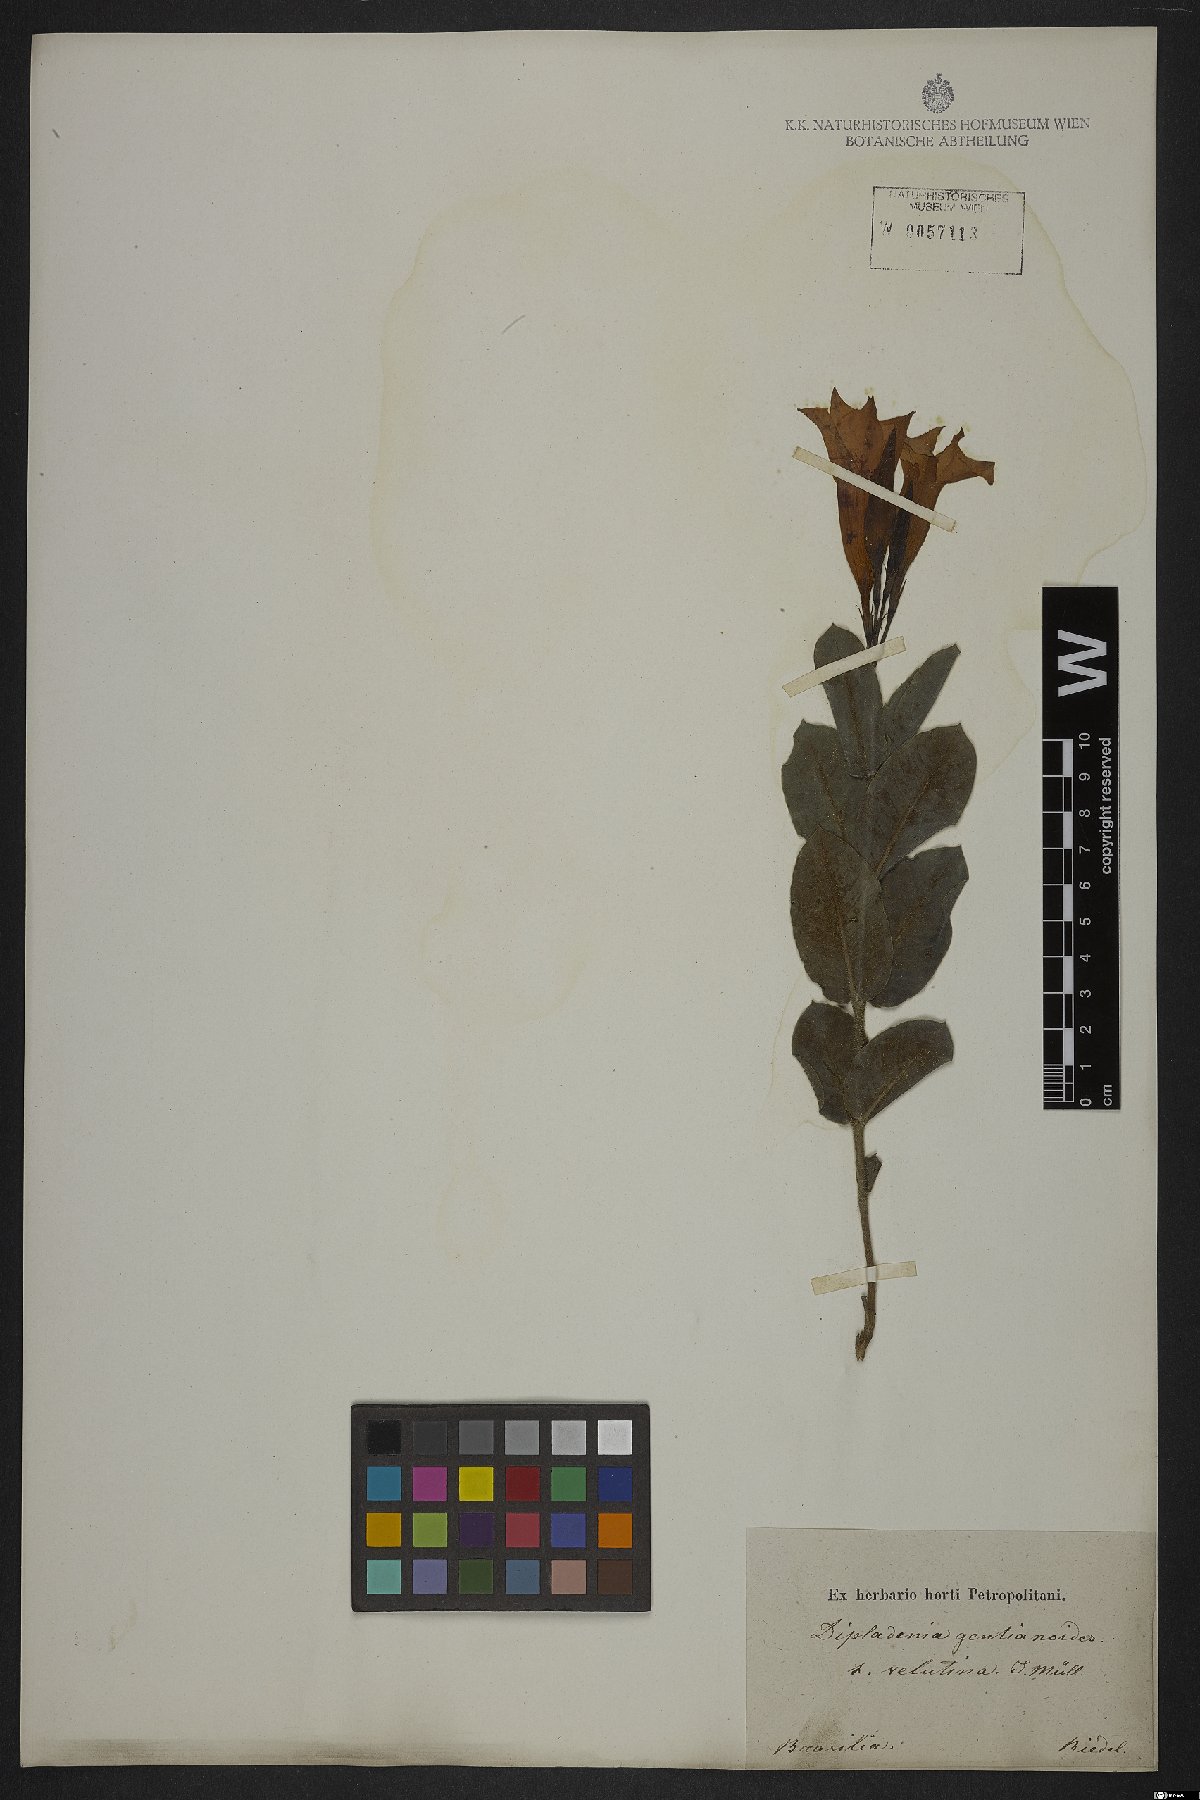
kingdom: Plantae
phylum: Tracheophyta
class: Magnoliopsida
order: Gentianales
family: Apocynaceae
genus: Mandevilla
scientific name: Mandevilla pohliana
